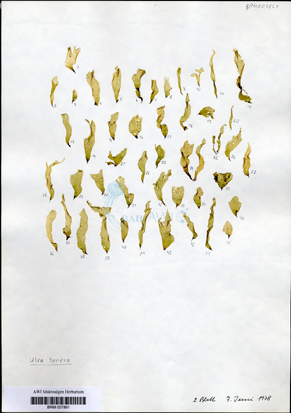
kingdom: Plantae
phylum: Chlorophyta
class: Ulvophyceae
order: Ulvales
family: Ulvaceae
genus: Ulva
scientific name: Ulva tenera
